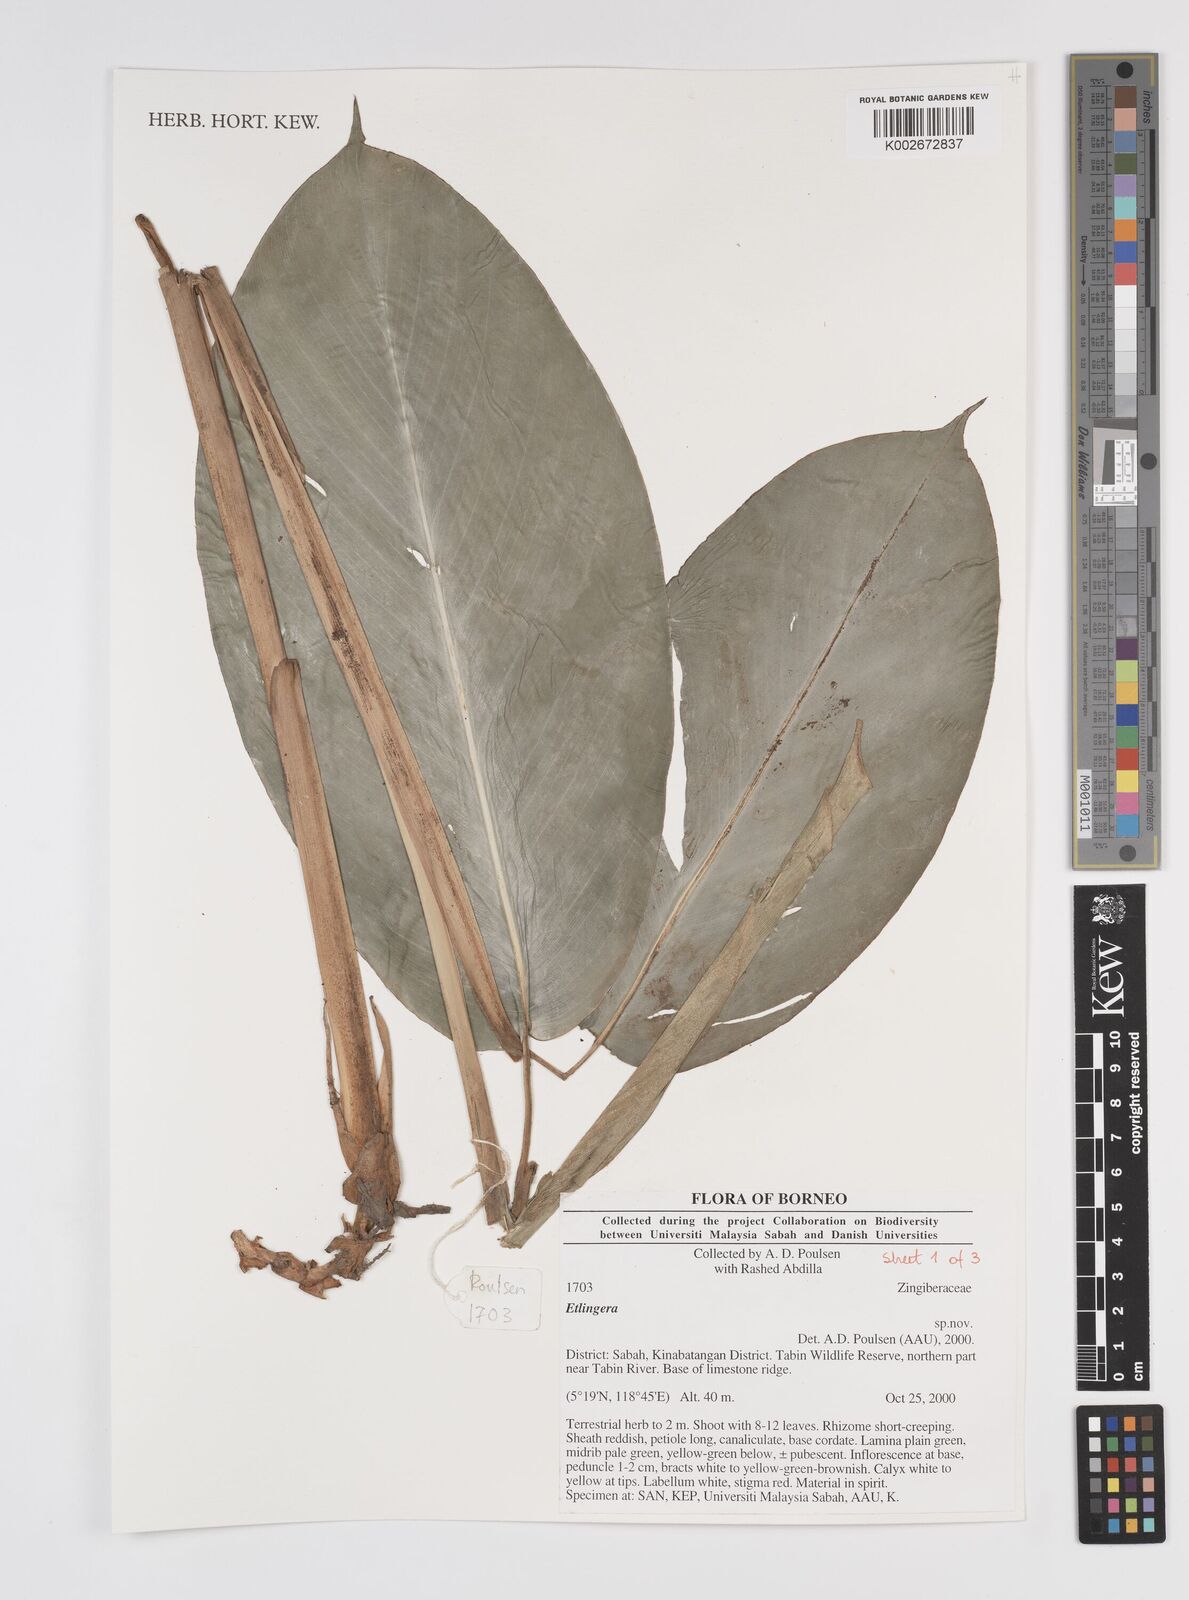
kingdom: Plantae
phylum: Tracheophyta
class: Liliopsida
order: Zingiberales
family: Zingiberaceae
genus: Etlingera
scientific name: Etlingera
